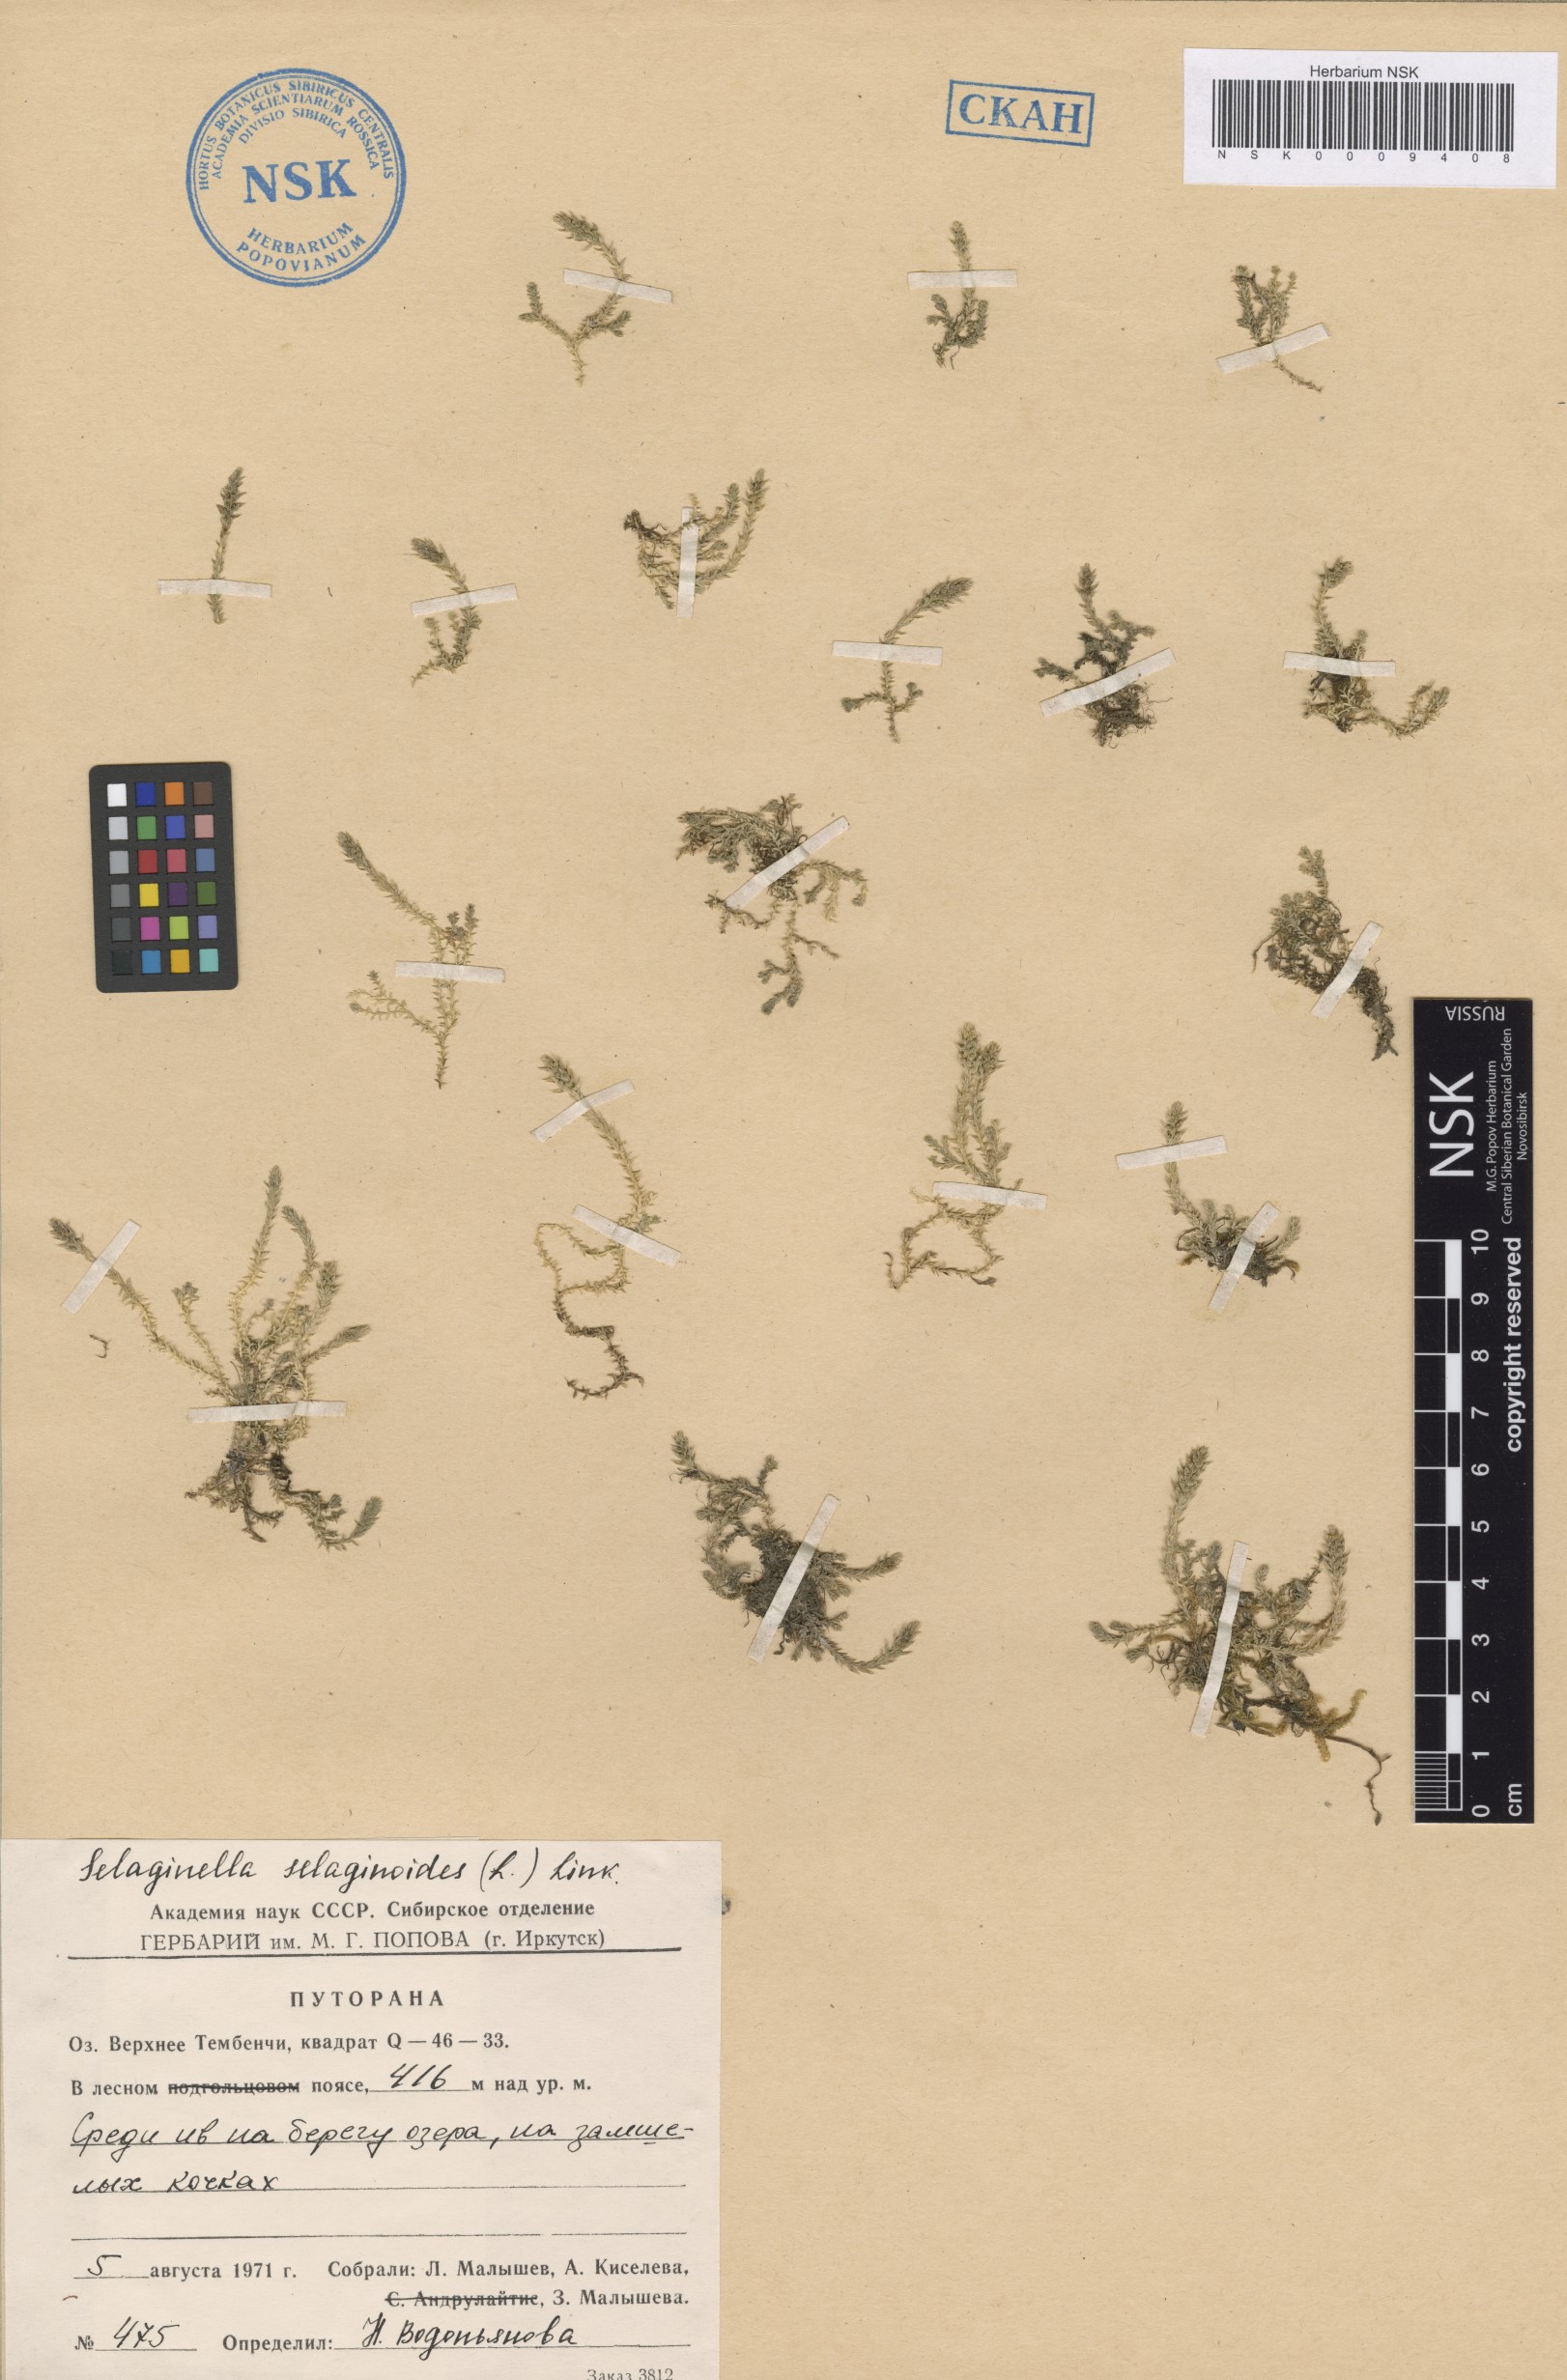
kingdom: Plantae
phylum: Tracheophyta
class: Lycopodiopsida
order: Selaginellales
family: Selaginellaceae
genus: Selaginella
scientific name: Selaginella selaginoides
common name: Prickly mountain-moss
